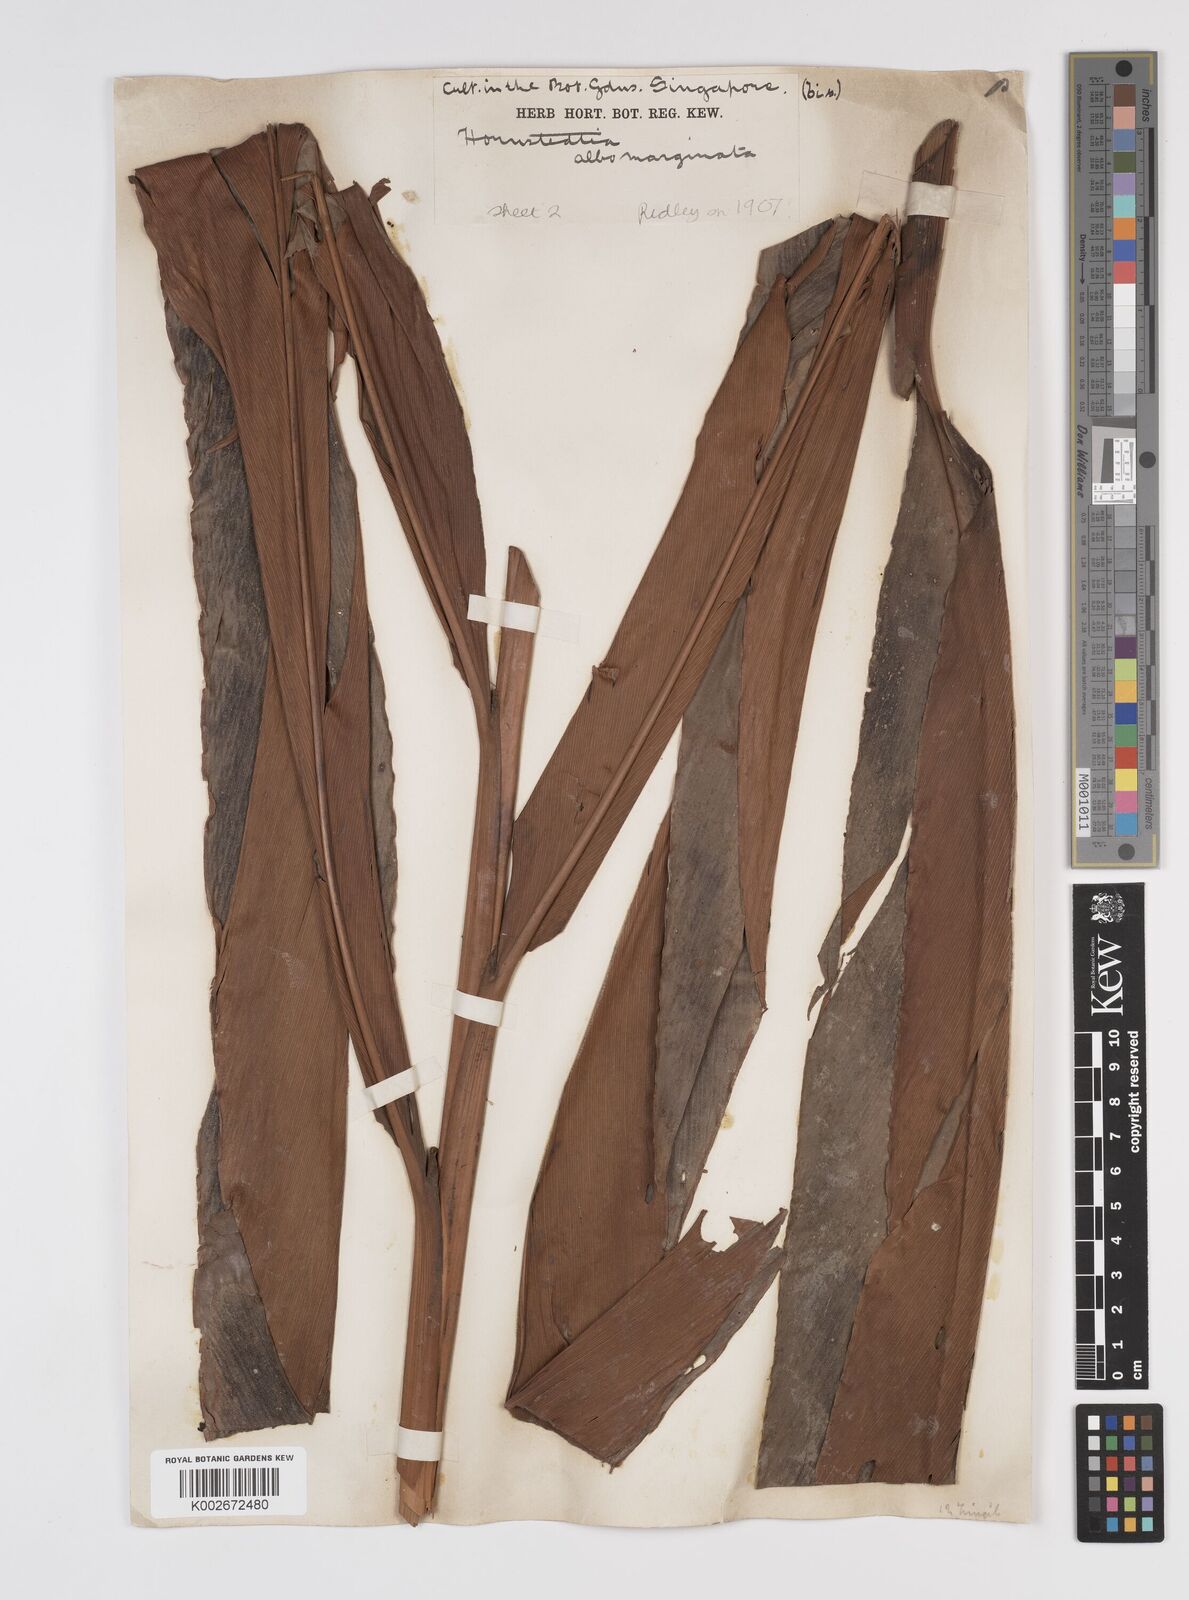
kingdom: Plantae
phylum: Tracheophyta
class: Liliopsida
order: Zingiberales
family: Zingiberaceae
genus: Etlingera
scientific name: Etlingera metriocheilos
